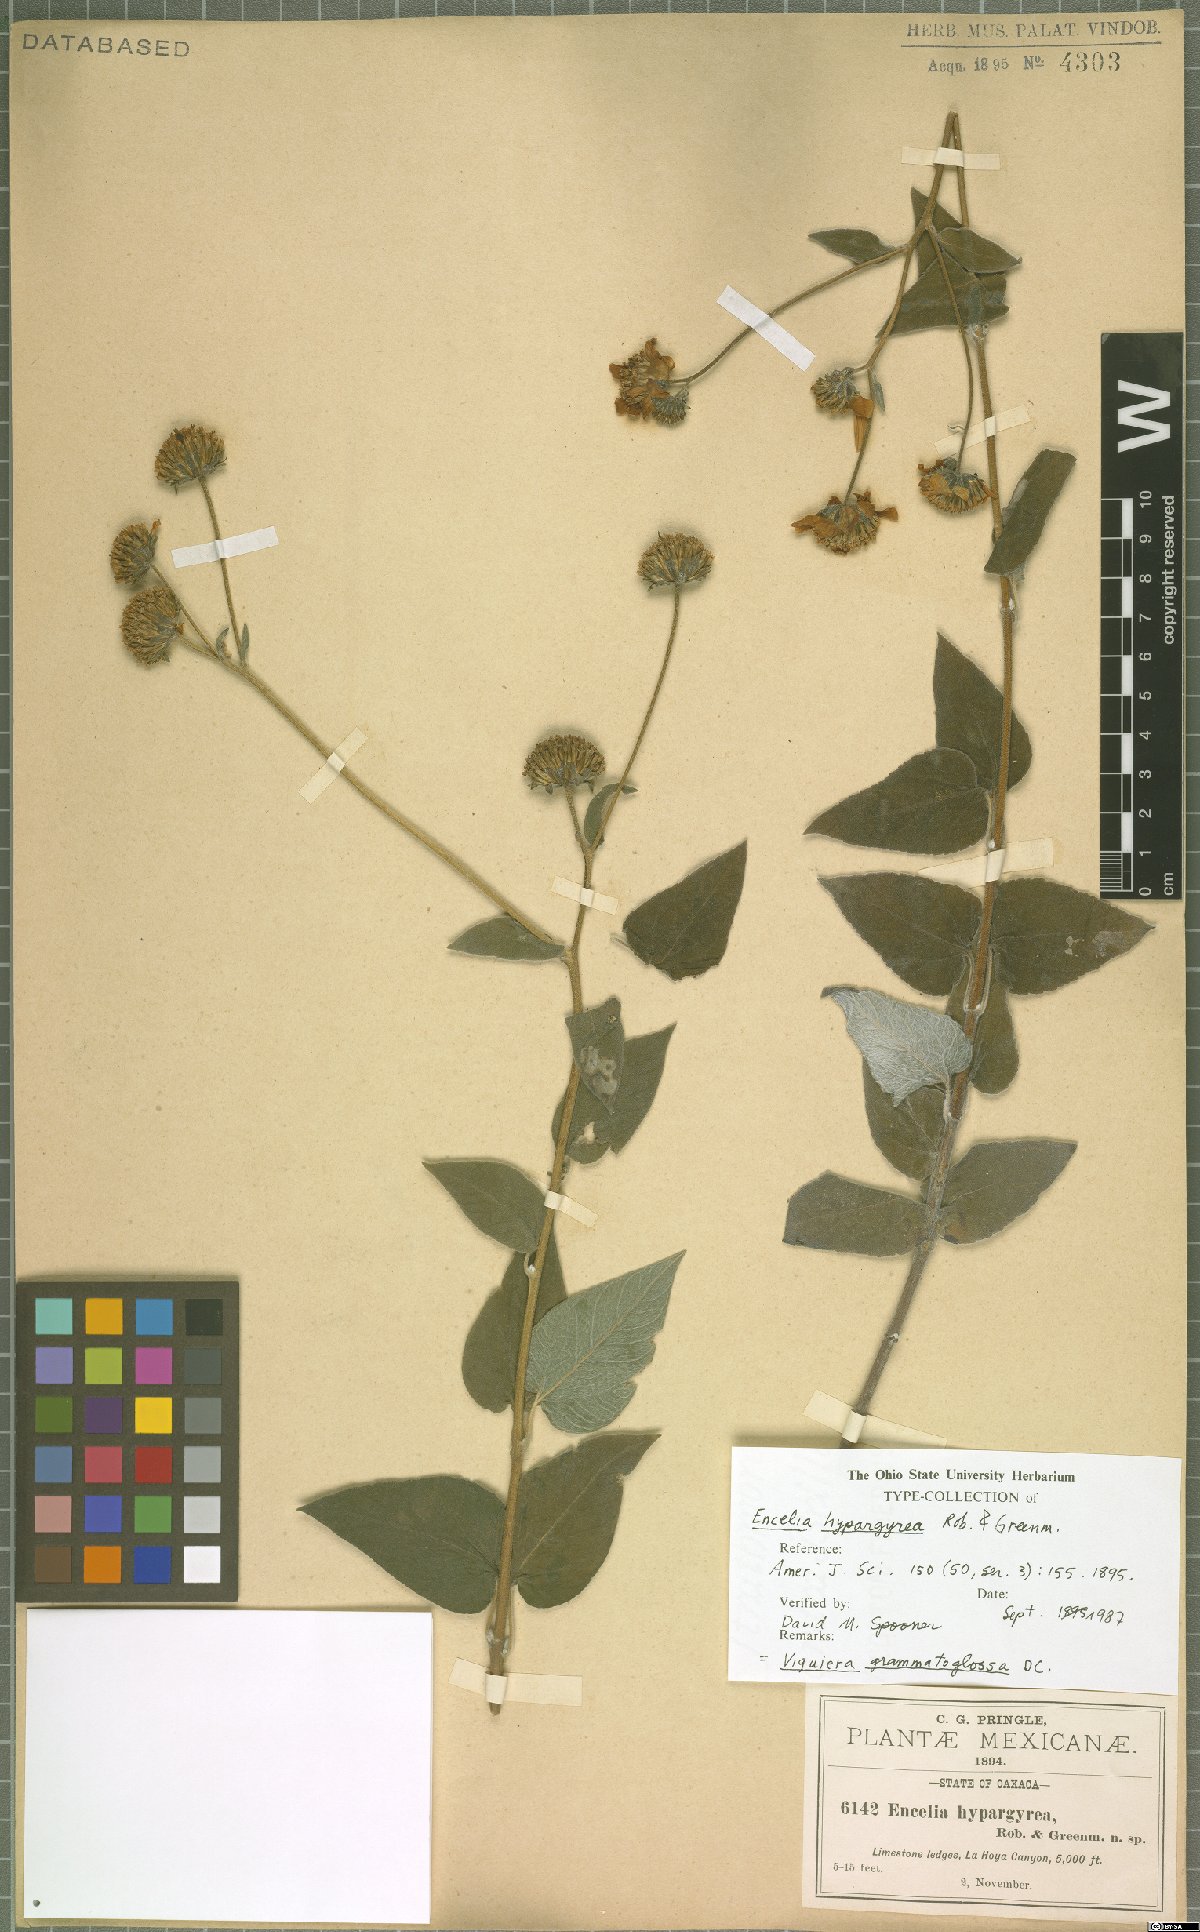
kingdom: Plantae
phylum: Tracheophyta
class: Magnoliopsida
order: Asterales
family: Asteraceae
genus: Viguiera
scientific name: Viguiera grammatoglossa
